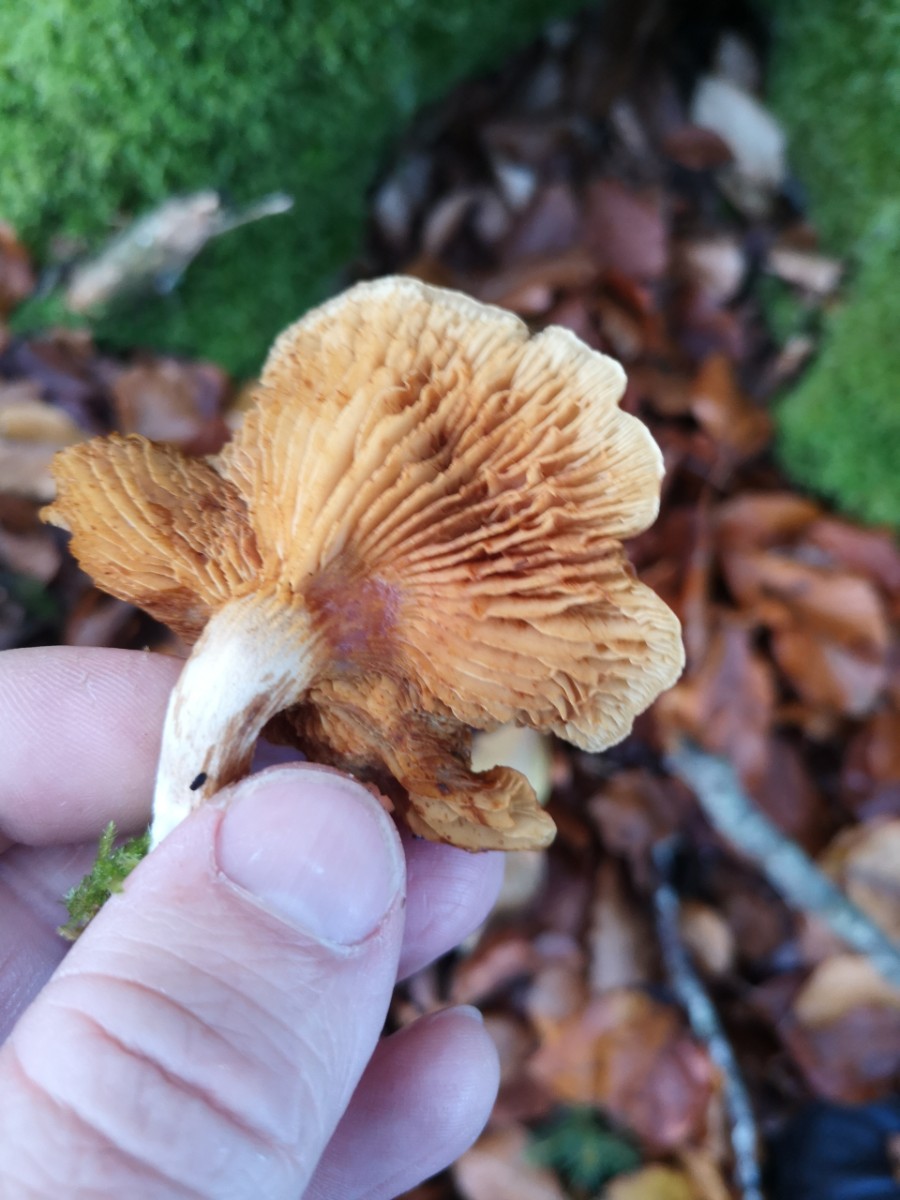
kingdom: Fungi
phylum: Basidiomycota
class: Agaricomycetes
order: Agaricales
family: Hymenogastraceae
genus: Gymnopilus
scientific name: Gymnopilus penetrans
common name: plettet flammehat
